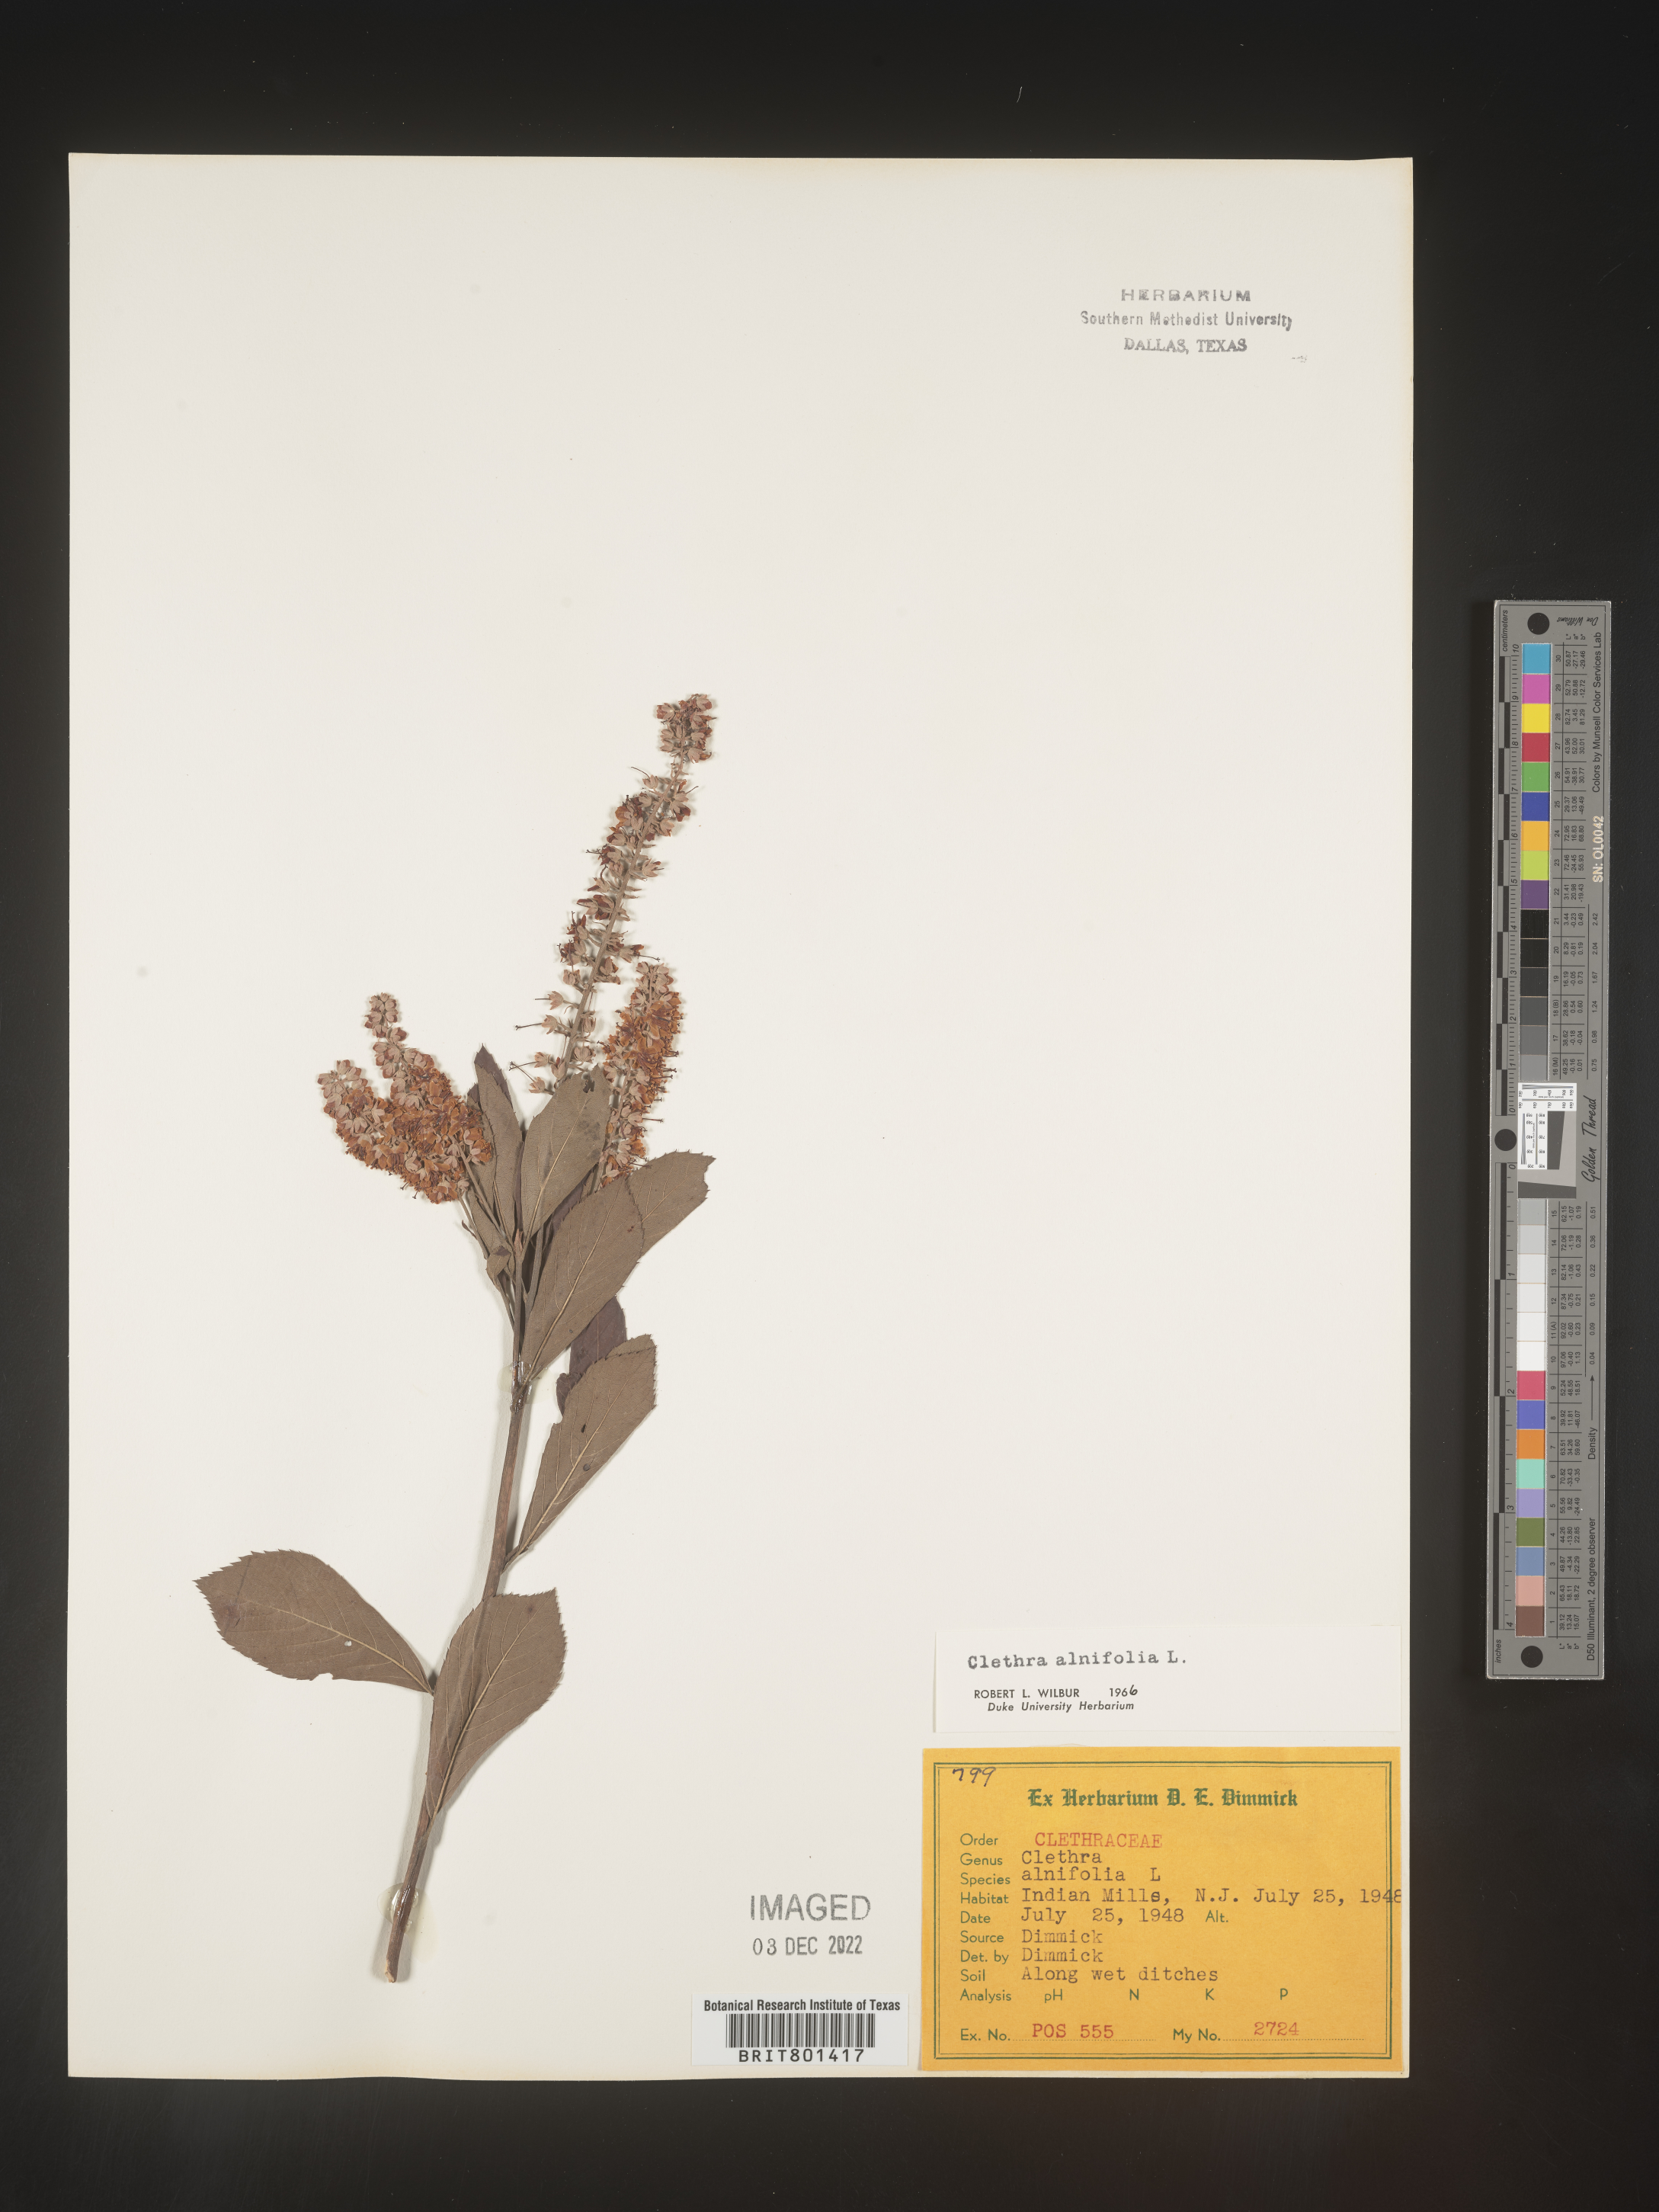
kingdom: Plantae
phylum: Tracheophyta
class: Magnoliopsida
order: Ericales
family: Clethraceae
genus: Clethra
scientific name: Clethra alnifolia
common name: Sweet pepperbush
